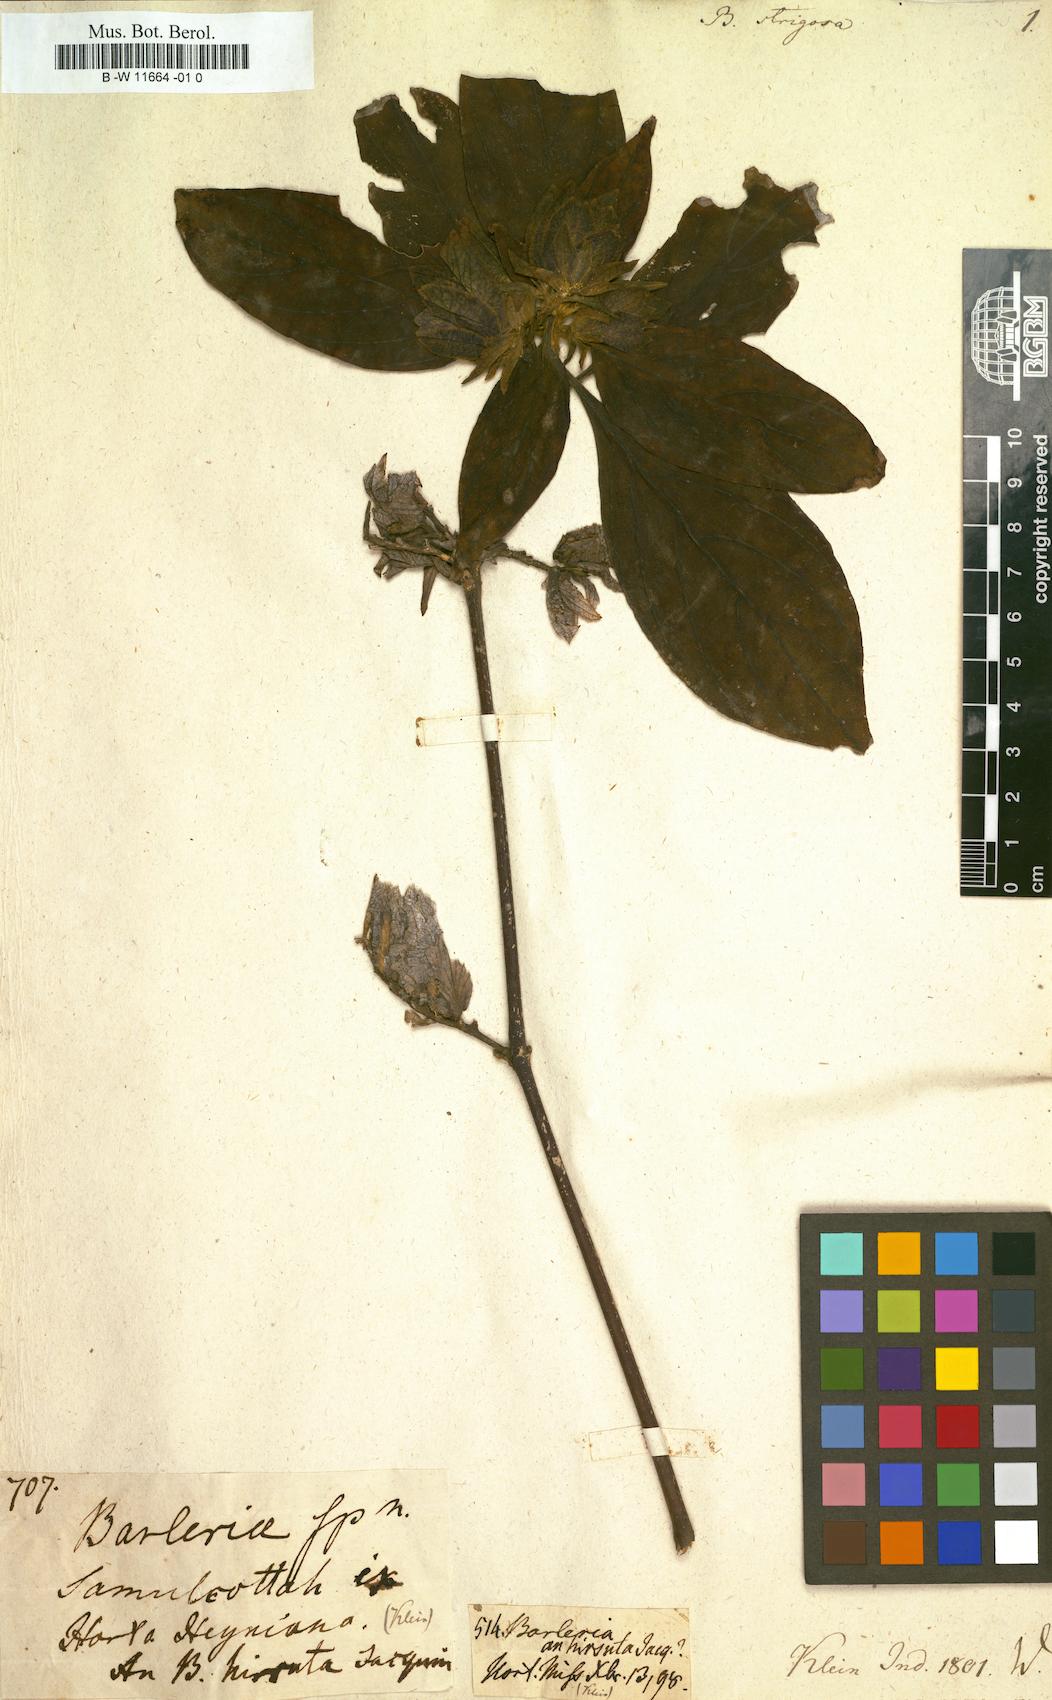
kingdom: Plantae
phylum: Tracheophyta
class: Magnoliopsida
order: Lamiales
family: Acanthaceae
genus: Barleria
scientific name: Barleria strigosa
